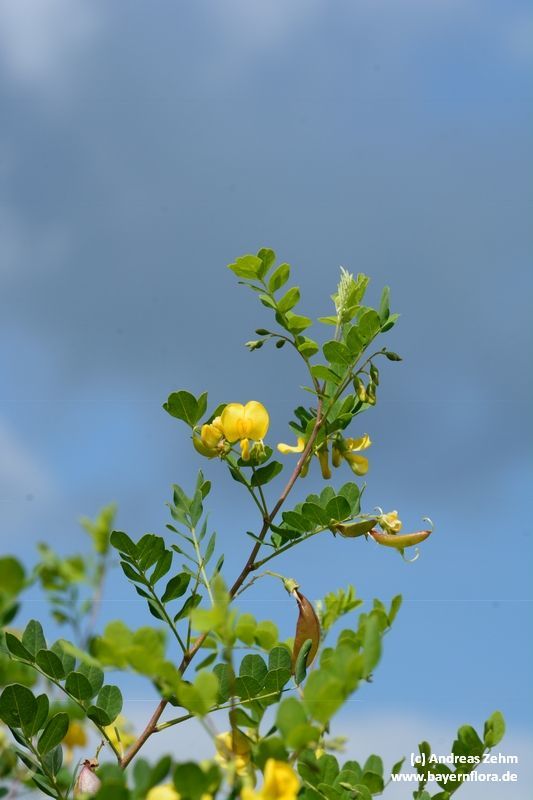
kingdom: Plantae
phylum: Tracheophyta
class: Magnoliopsida
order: Fabales
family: Fabaceae
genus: Colutea
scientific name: Colutea arborescens
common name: Bladder-senna
